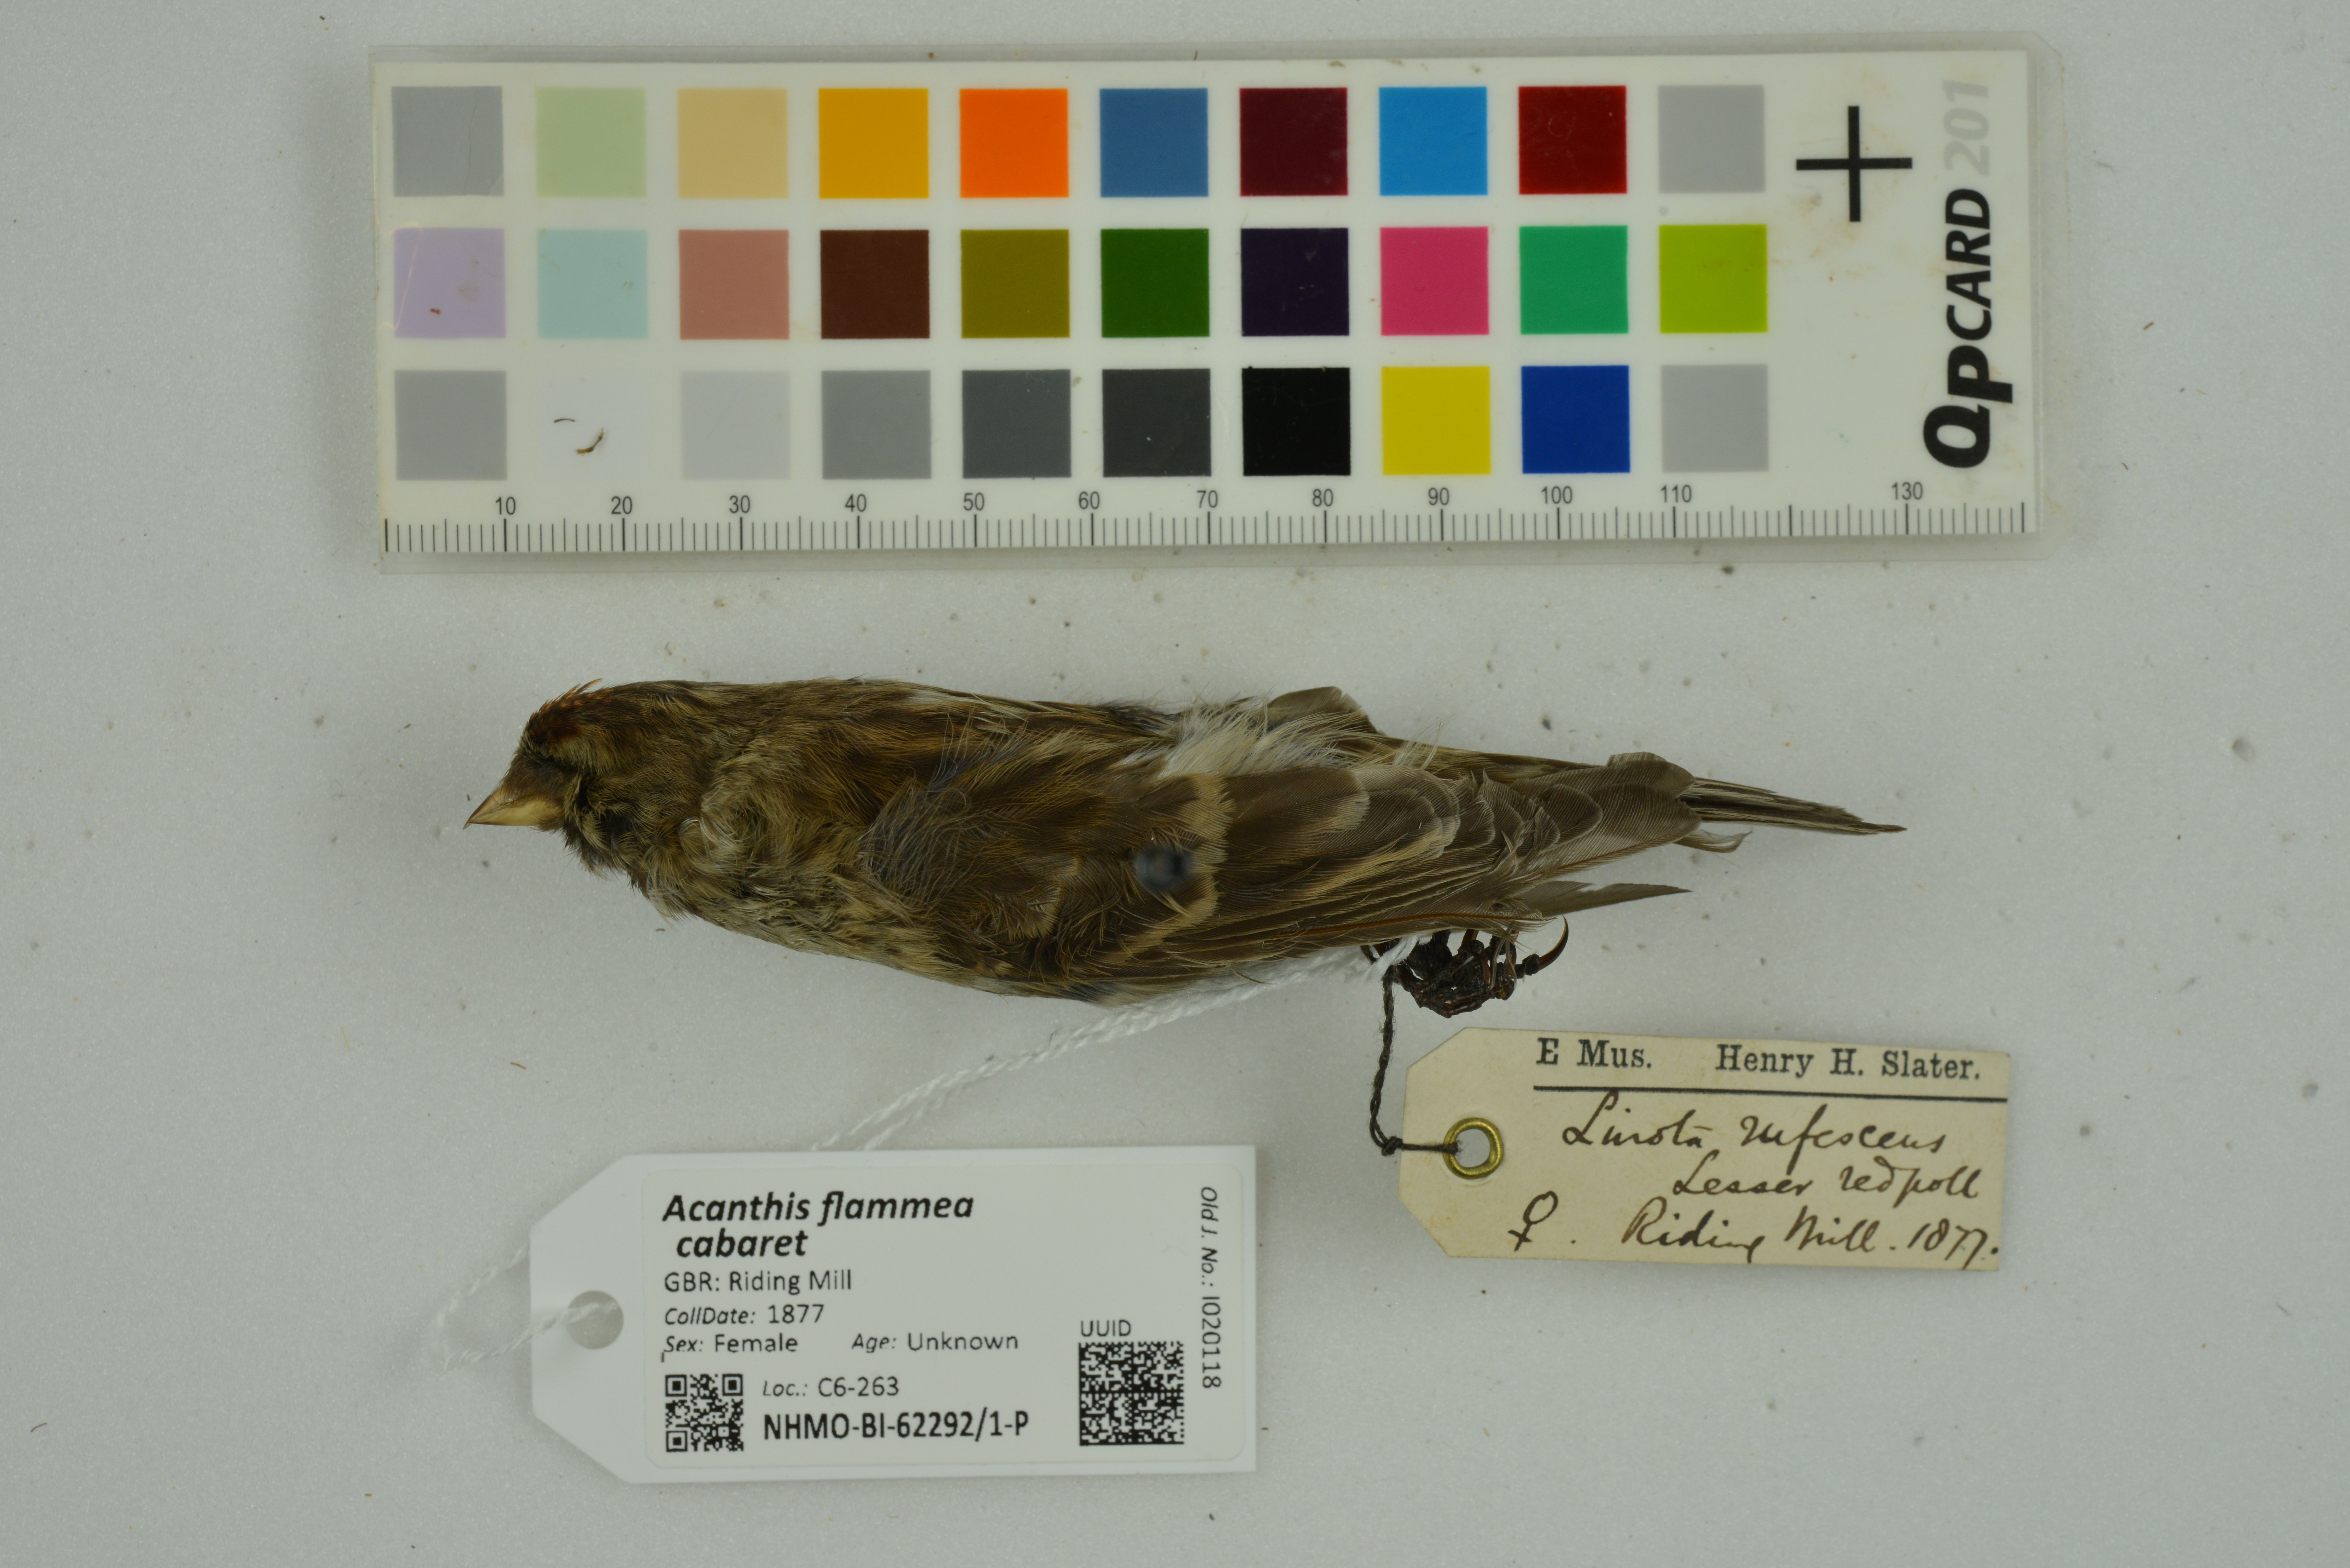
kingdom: Animalia
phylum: Chordata
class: Aves
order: Passeriformes
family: Fringillidae
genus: Acanthis
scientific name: Acanthis flammea
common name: Common redpoll
